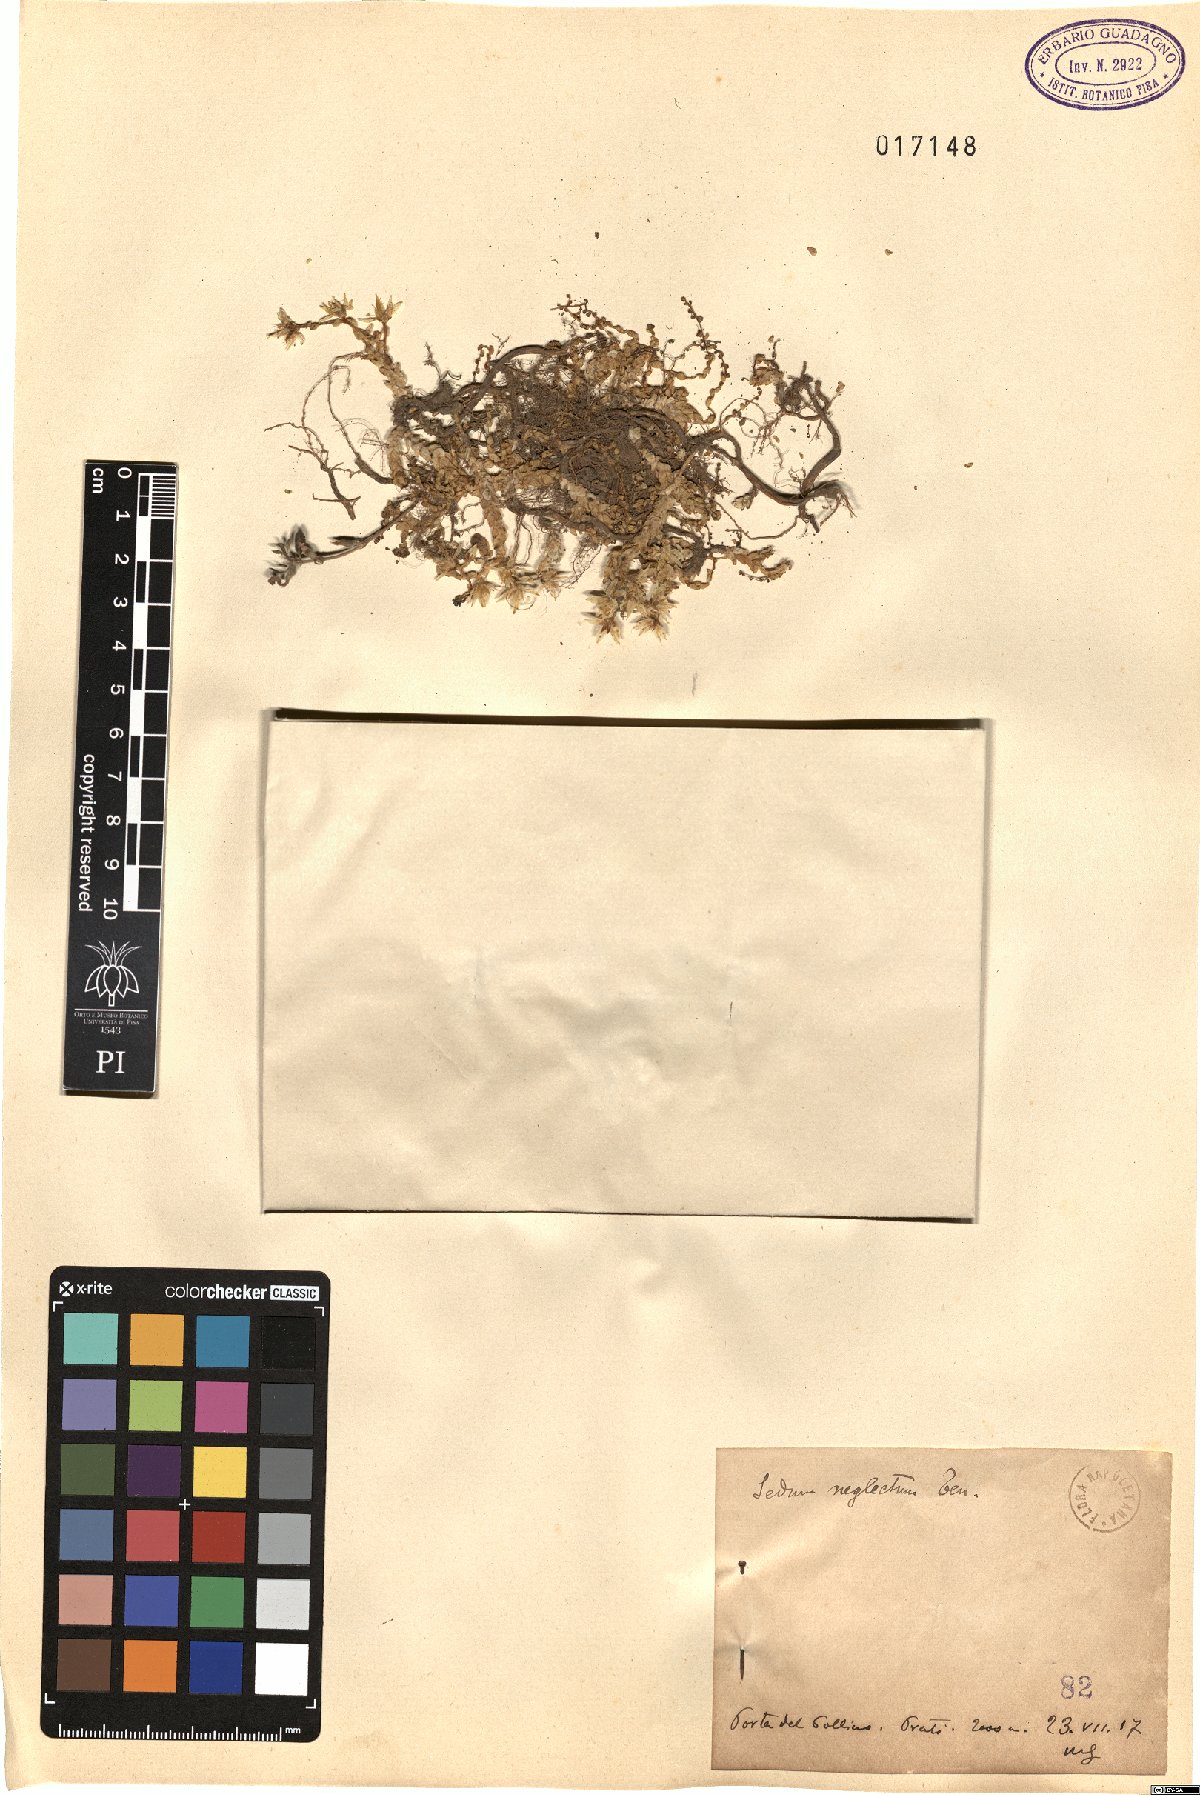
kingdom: Plantae
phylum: Tracheophyta
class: Magnoliopsida
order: Saxifragales
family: Crassulaceae
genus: Sedum
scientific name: Sedum acre
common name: Biting stonecrop
